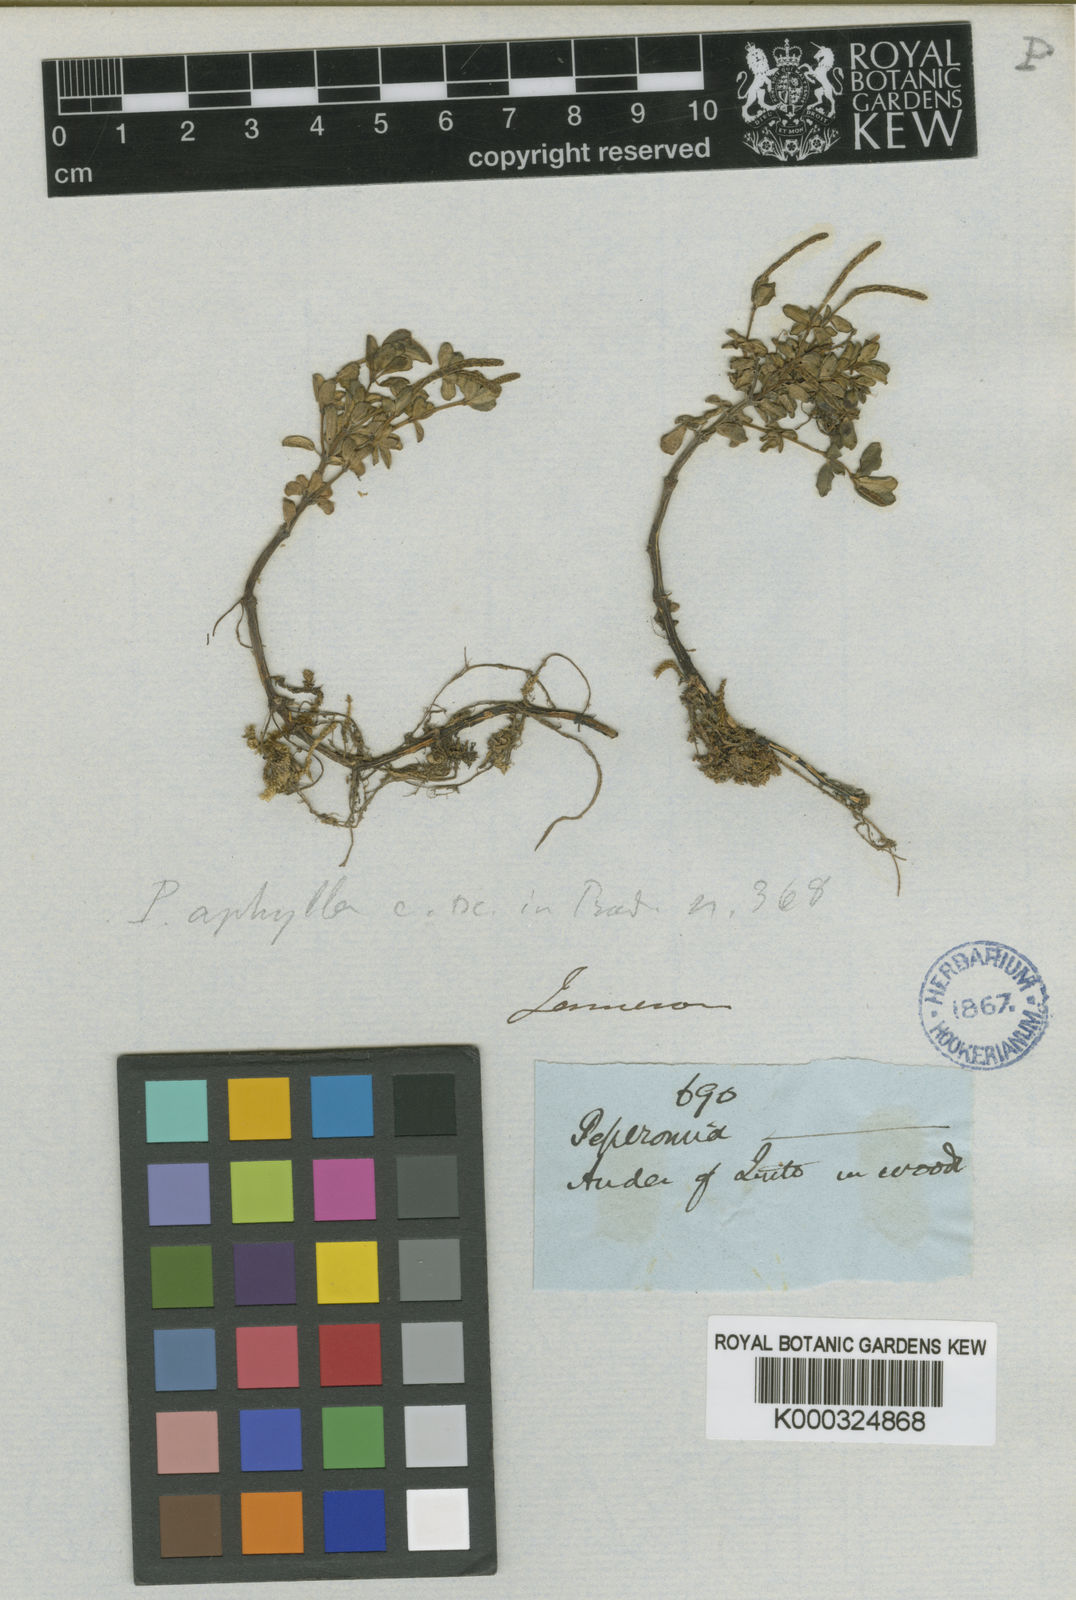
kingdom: Plantae
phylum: Tracheophyta
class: Magnoliopsida
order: Piperales
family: Piperaceae
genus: Peperomia
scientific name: Peperomia microphylla
